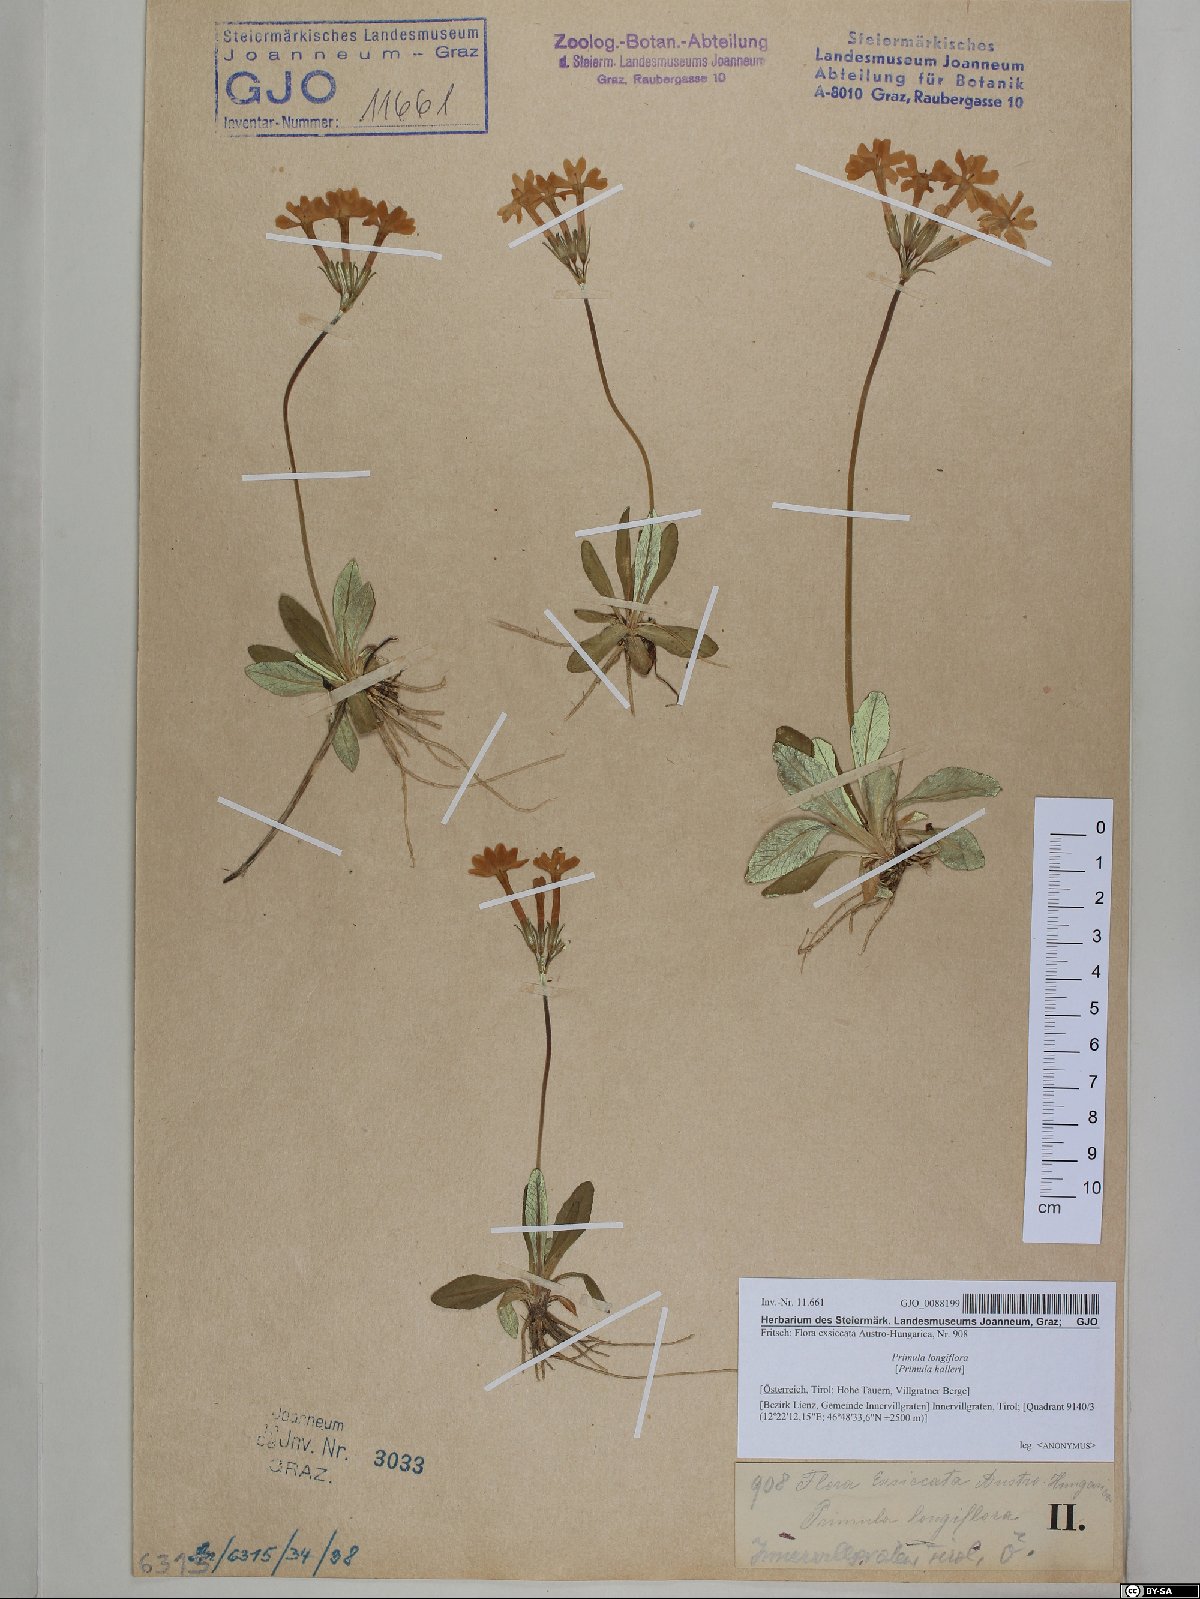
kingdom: Plantae
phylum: Tracheophyta
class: Magnoliopsida
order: Ericales
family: Primulaceae
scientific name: Primulaceae
